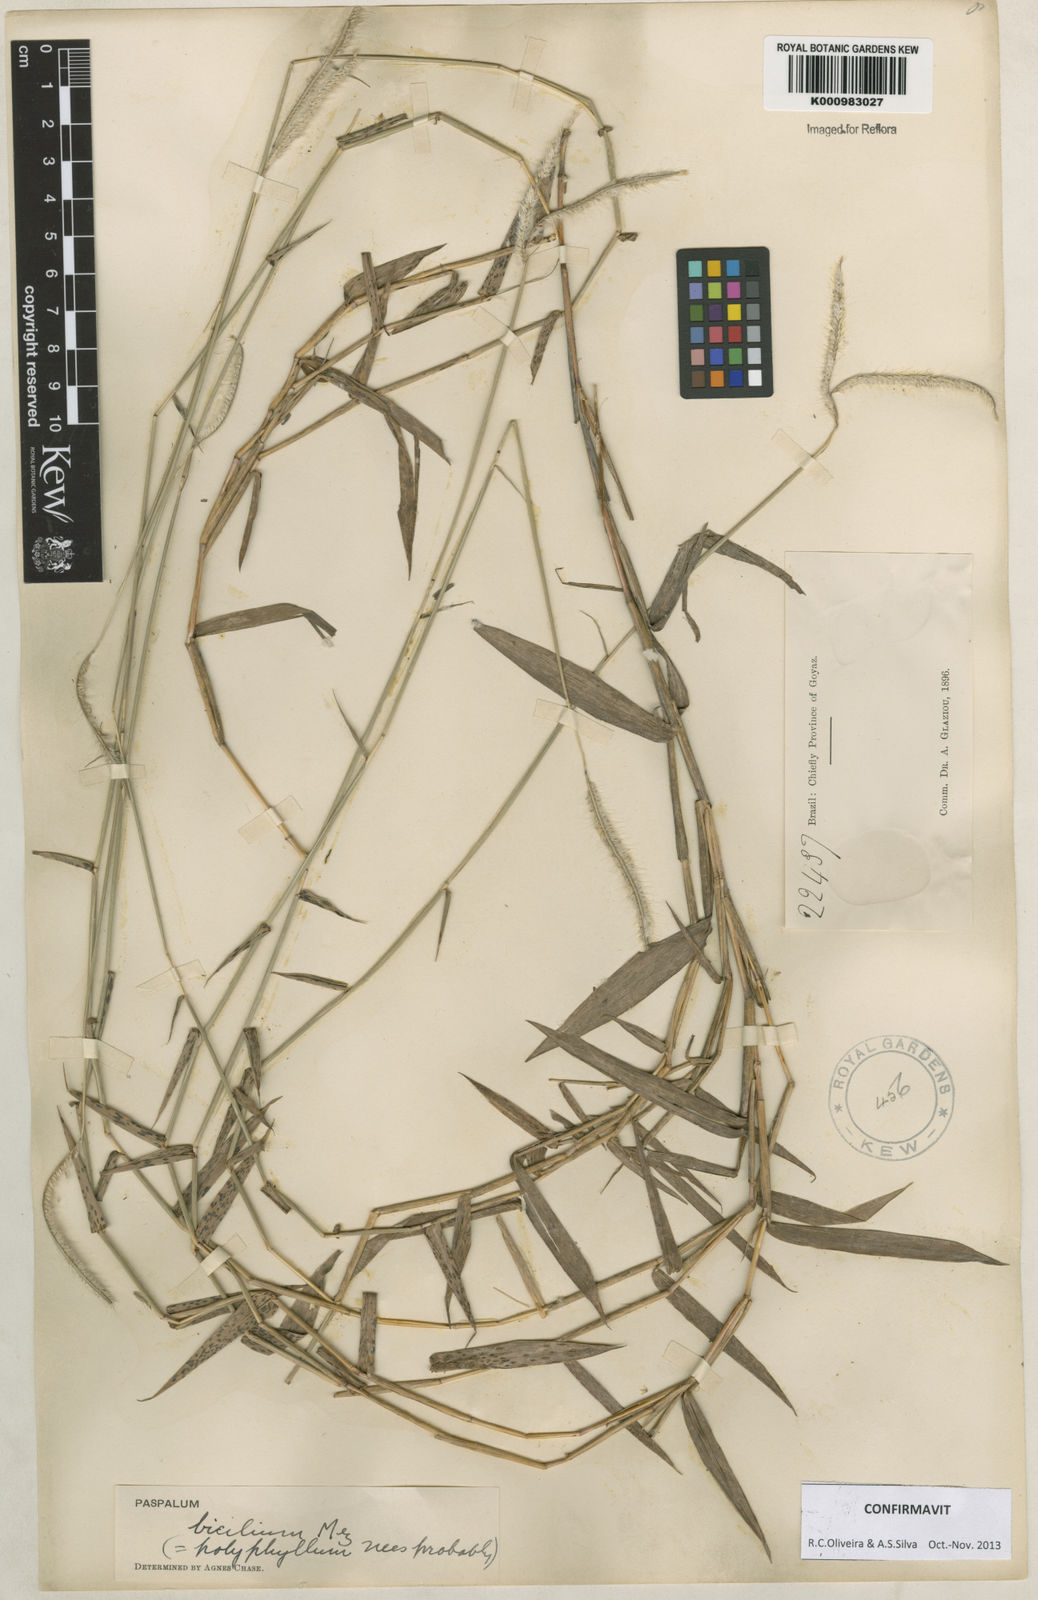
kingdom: Plantae
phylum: Tracheophyta
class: Liliopsida
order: Poales
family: Poaceae
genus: Paspalum
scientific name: Paspalum polyphyllum
